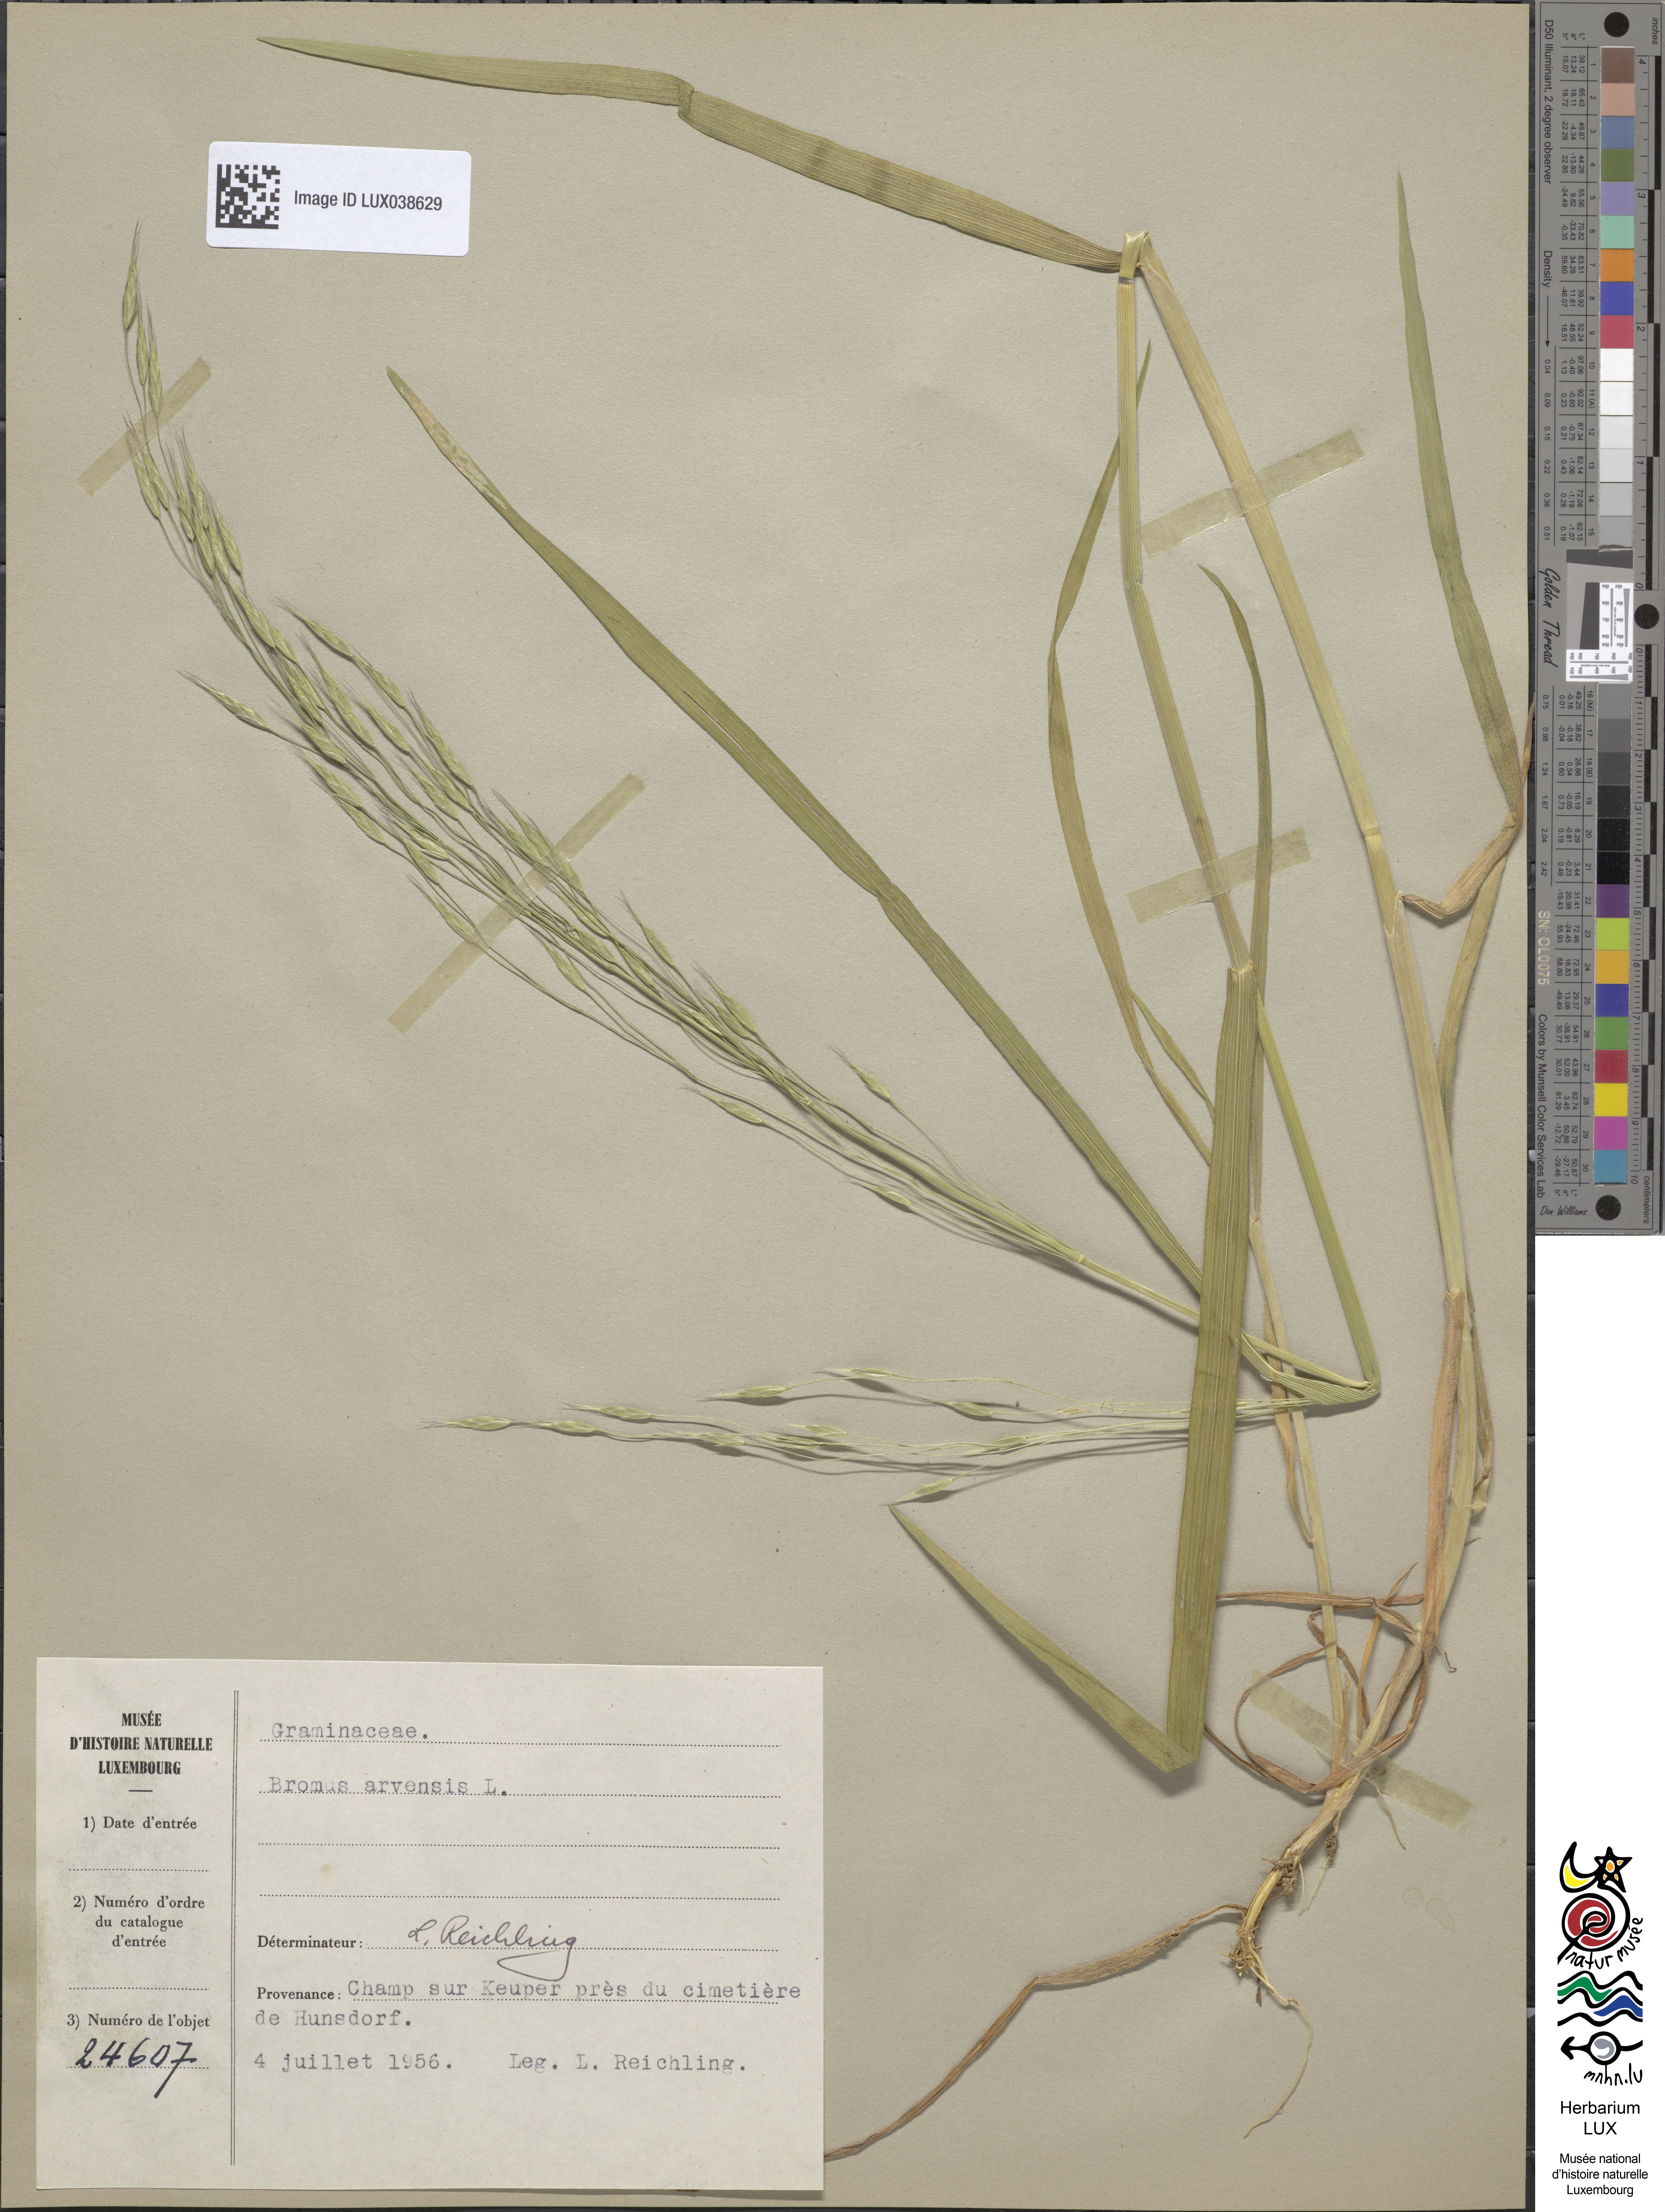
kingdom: Plantae
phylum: Tracheophyta
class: Liliopsida
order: Poales
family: Poaceae
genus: Bromus
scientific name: Bromus arvensis
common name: Field brome
